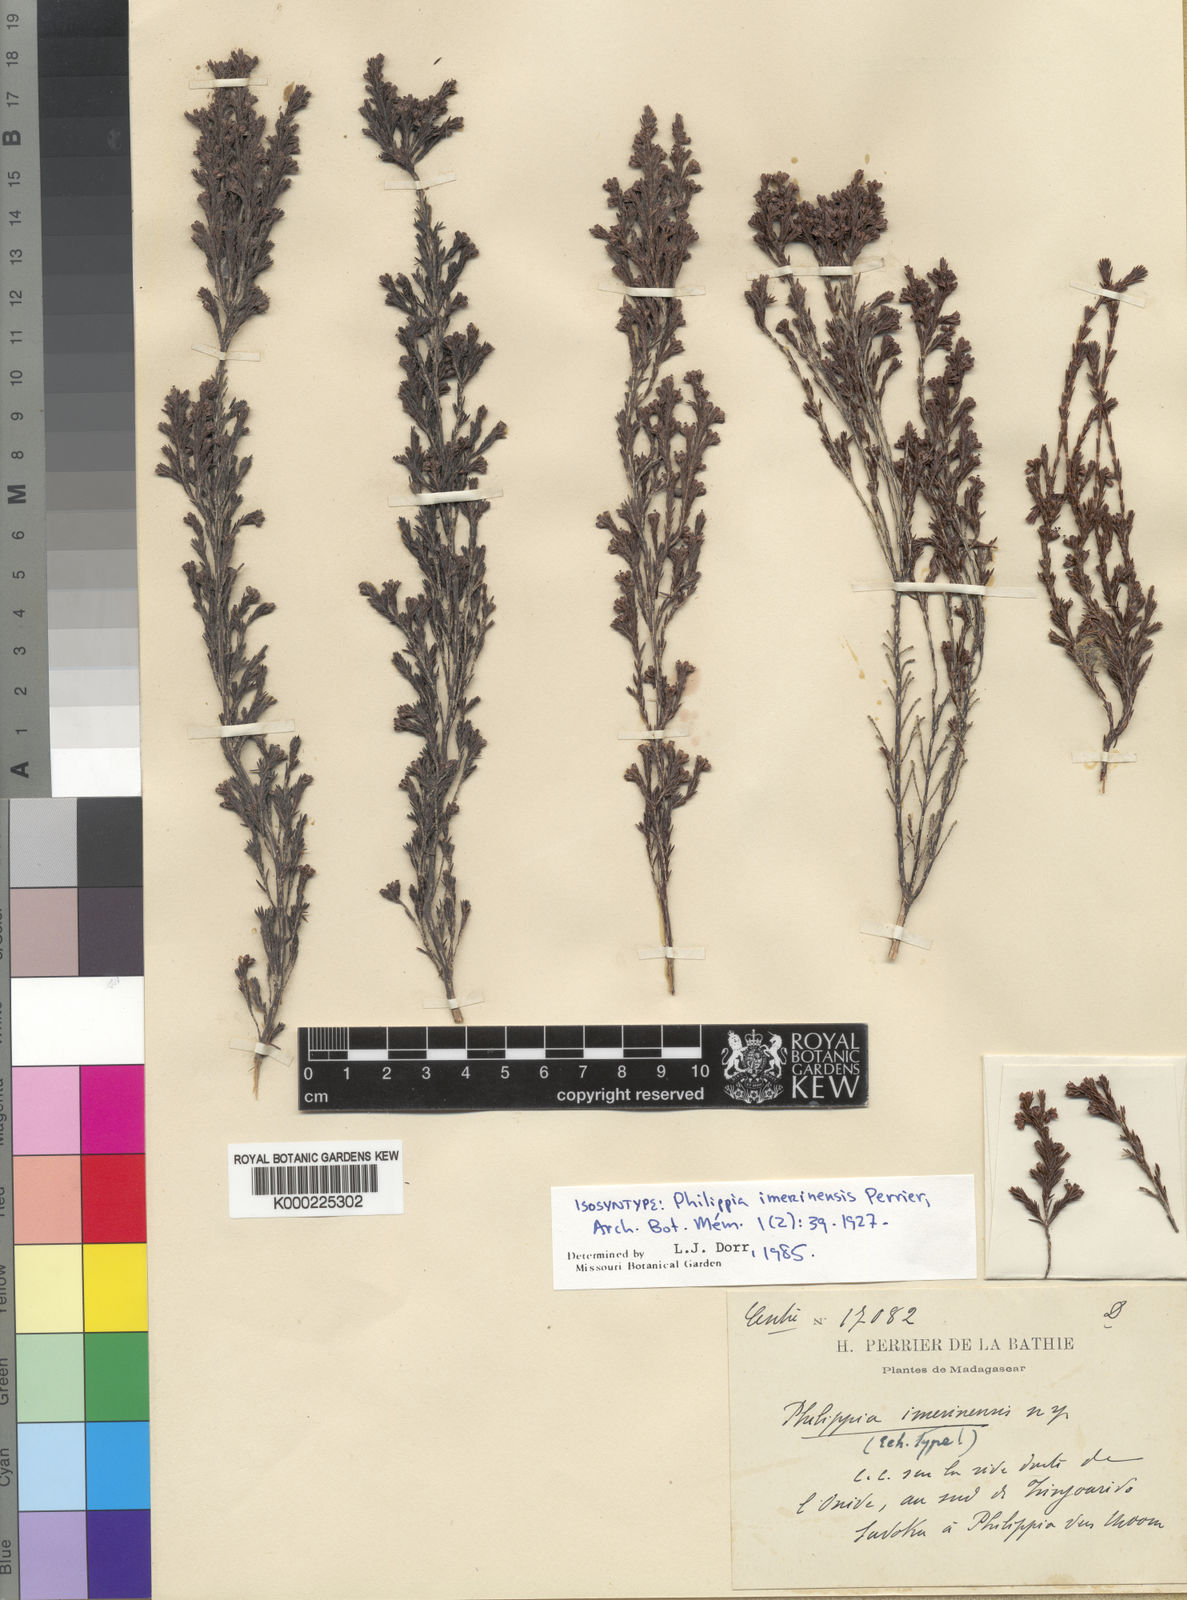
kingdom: Plantae
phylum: Tracheophyta
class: Magnoliopsida
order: Ericales
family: Ericaceae
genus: Erica
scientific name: Erica imerinensis
